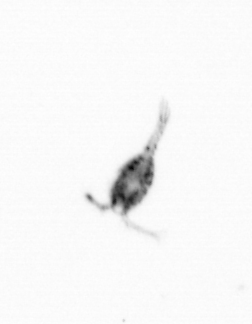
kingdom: Animalia
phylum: Arthropoda
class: Copepoda
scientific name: Copepoda
